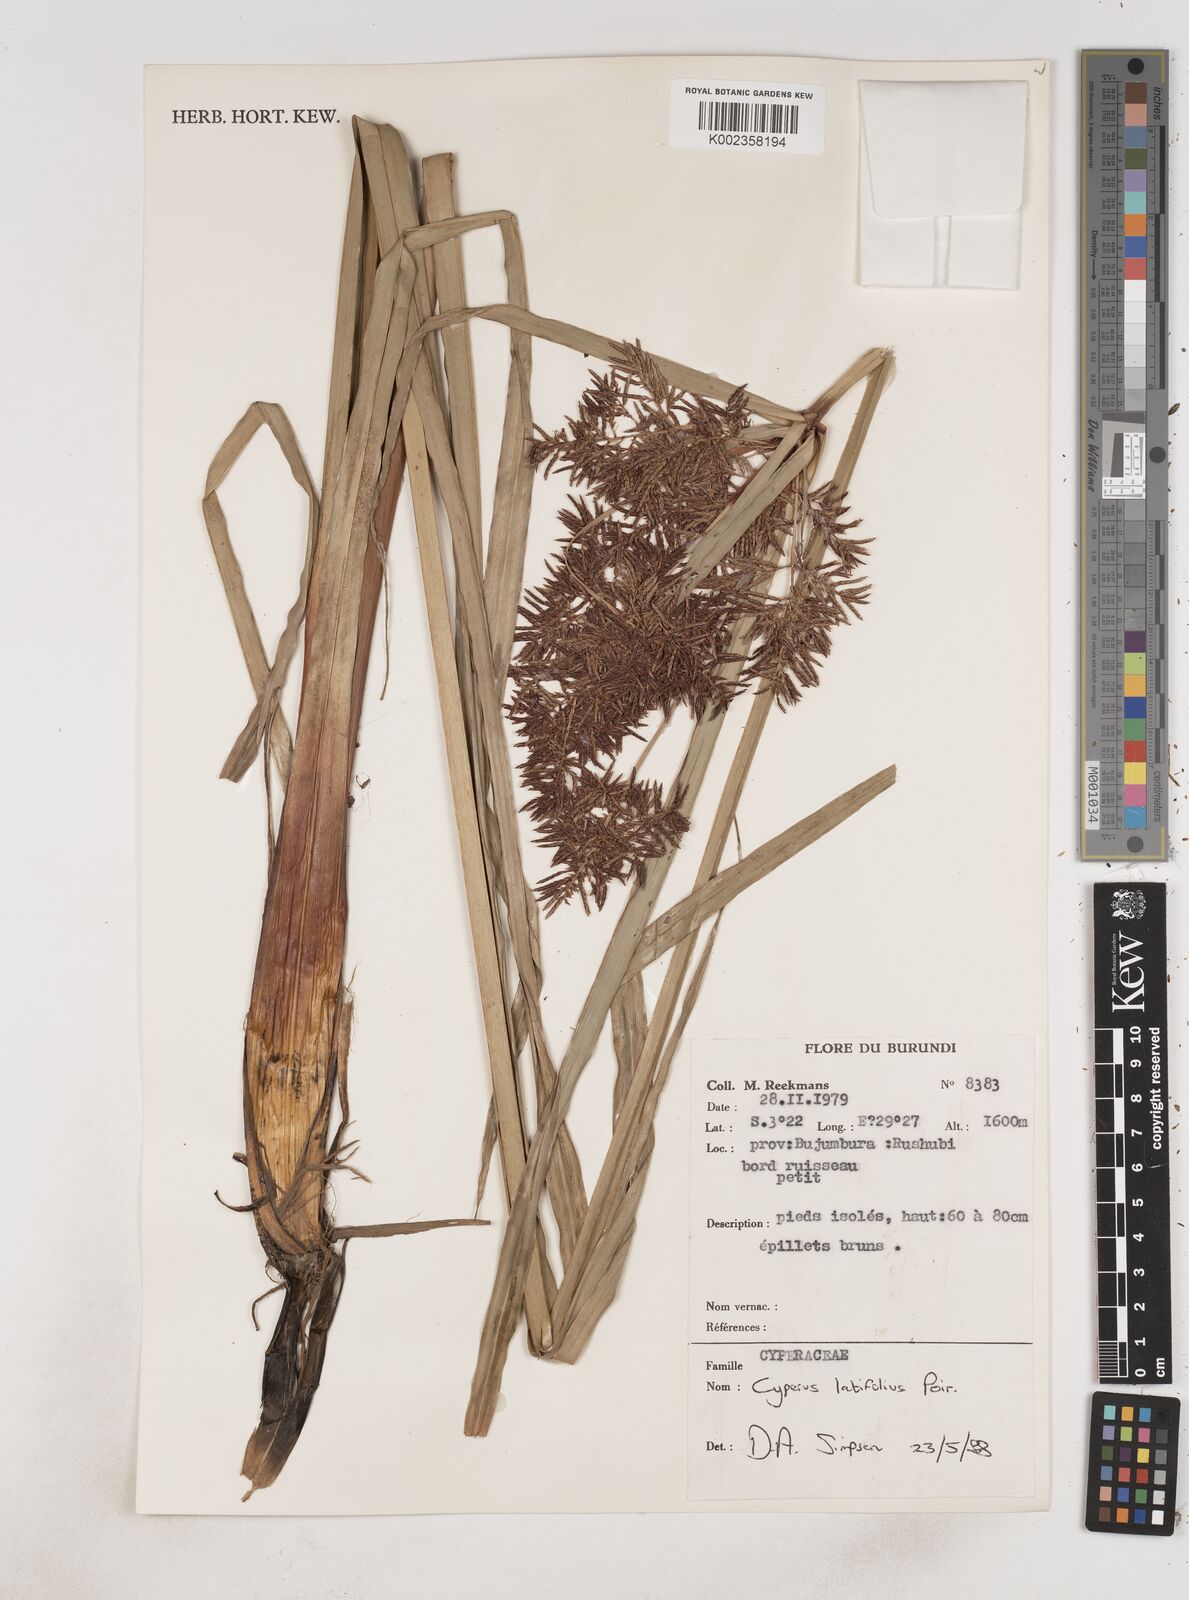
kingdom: Plantae
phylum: Tracheophyta
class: Liliopsida
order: Poales
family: Cyperaceae
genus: Cyperus
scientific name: Cyperus latifolius
